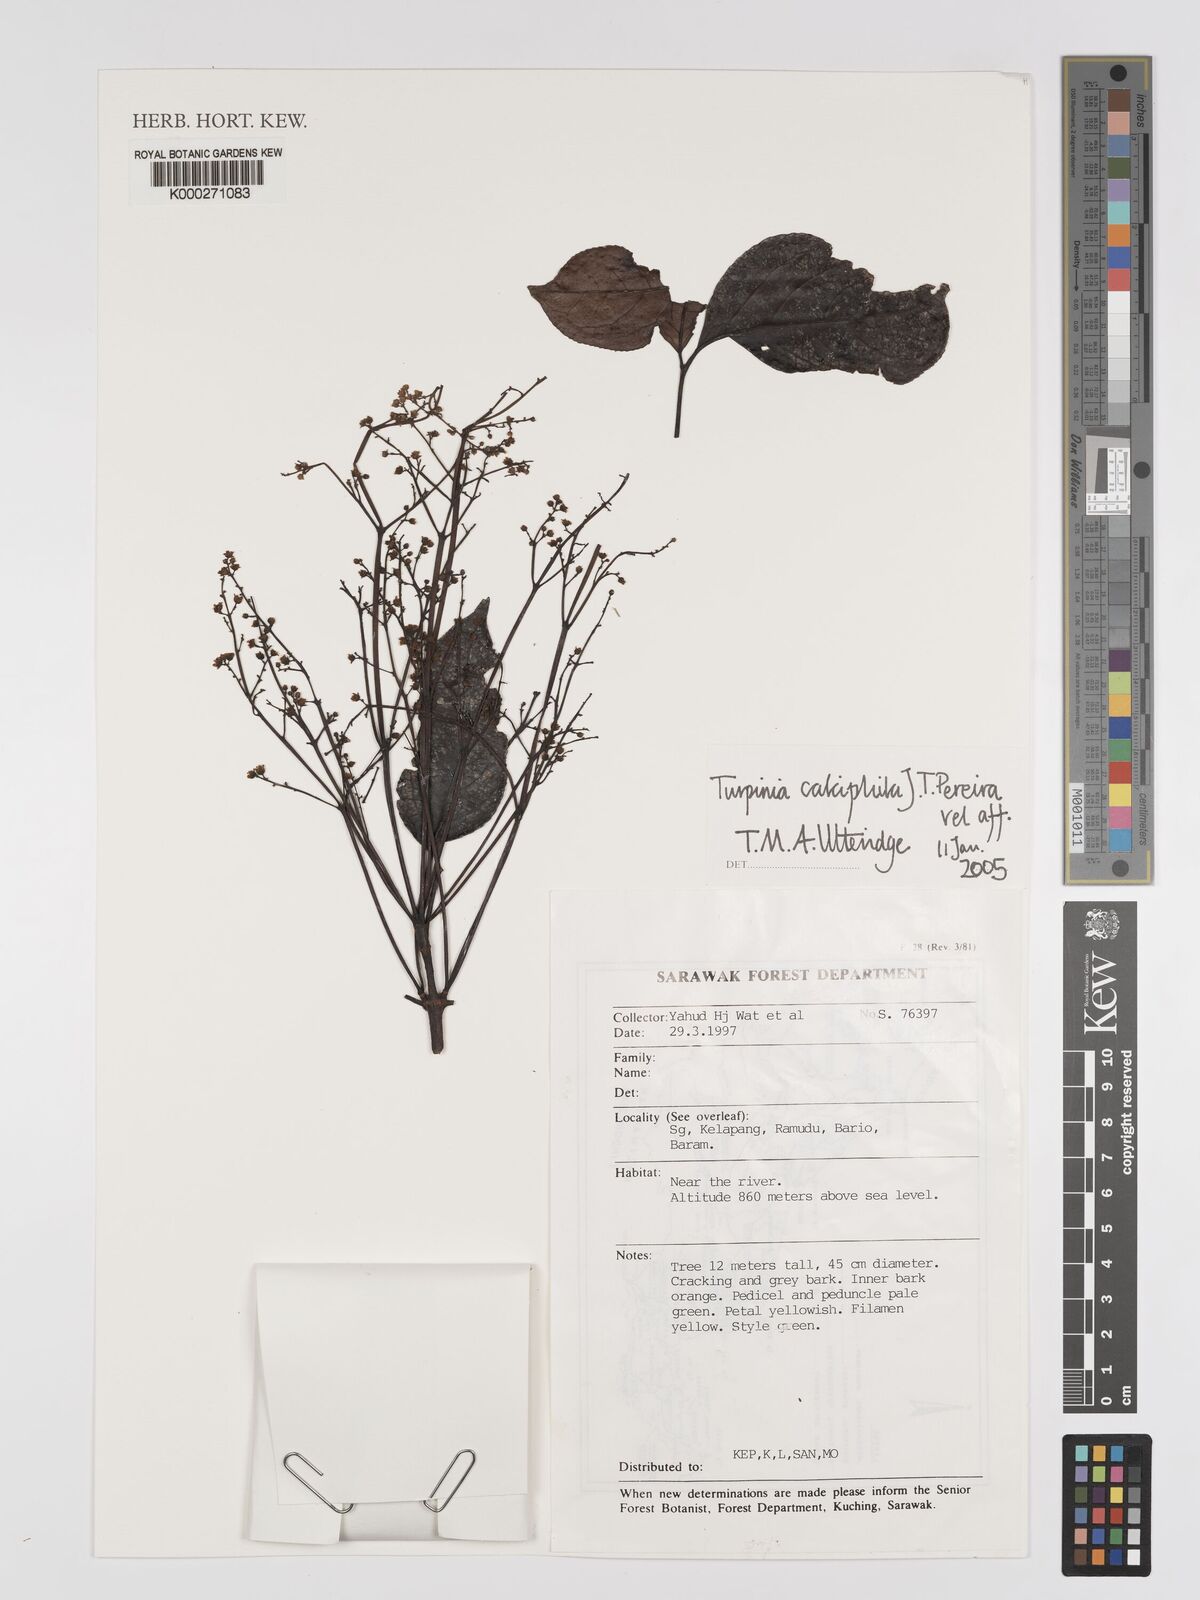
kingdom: Plantae
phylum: Tracheophyta
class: Magnoliopsida
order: Crossosomatales
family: Staphyleaceae
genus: Turpinia
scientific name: Turpinia
